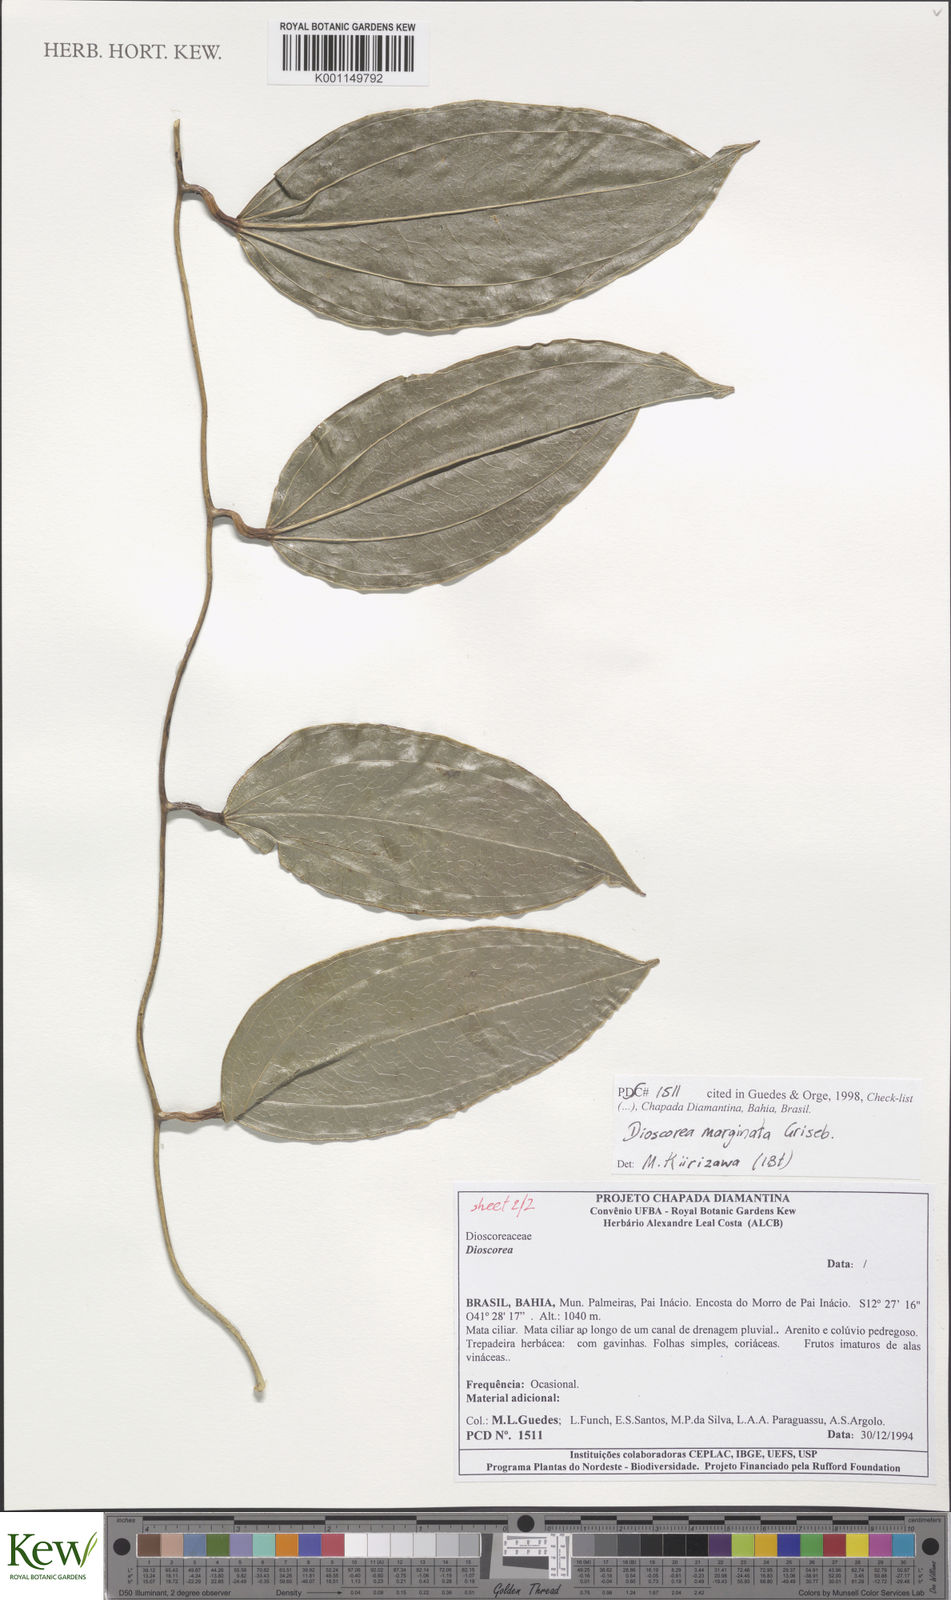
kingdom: Plantae
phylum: Tracheophyta
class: Liliopsida
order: Dioscoreales
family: Dioscoreaceae
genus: Dioscorea
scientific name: Dioscorea marginata
